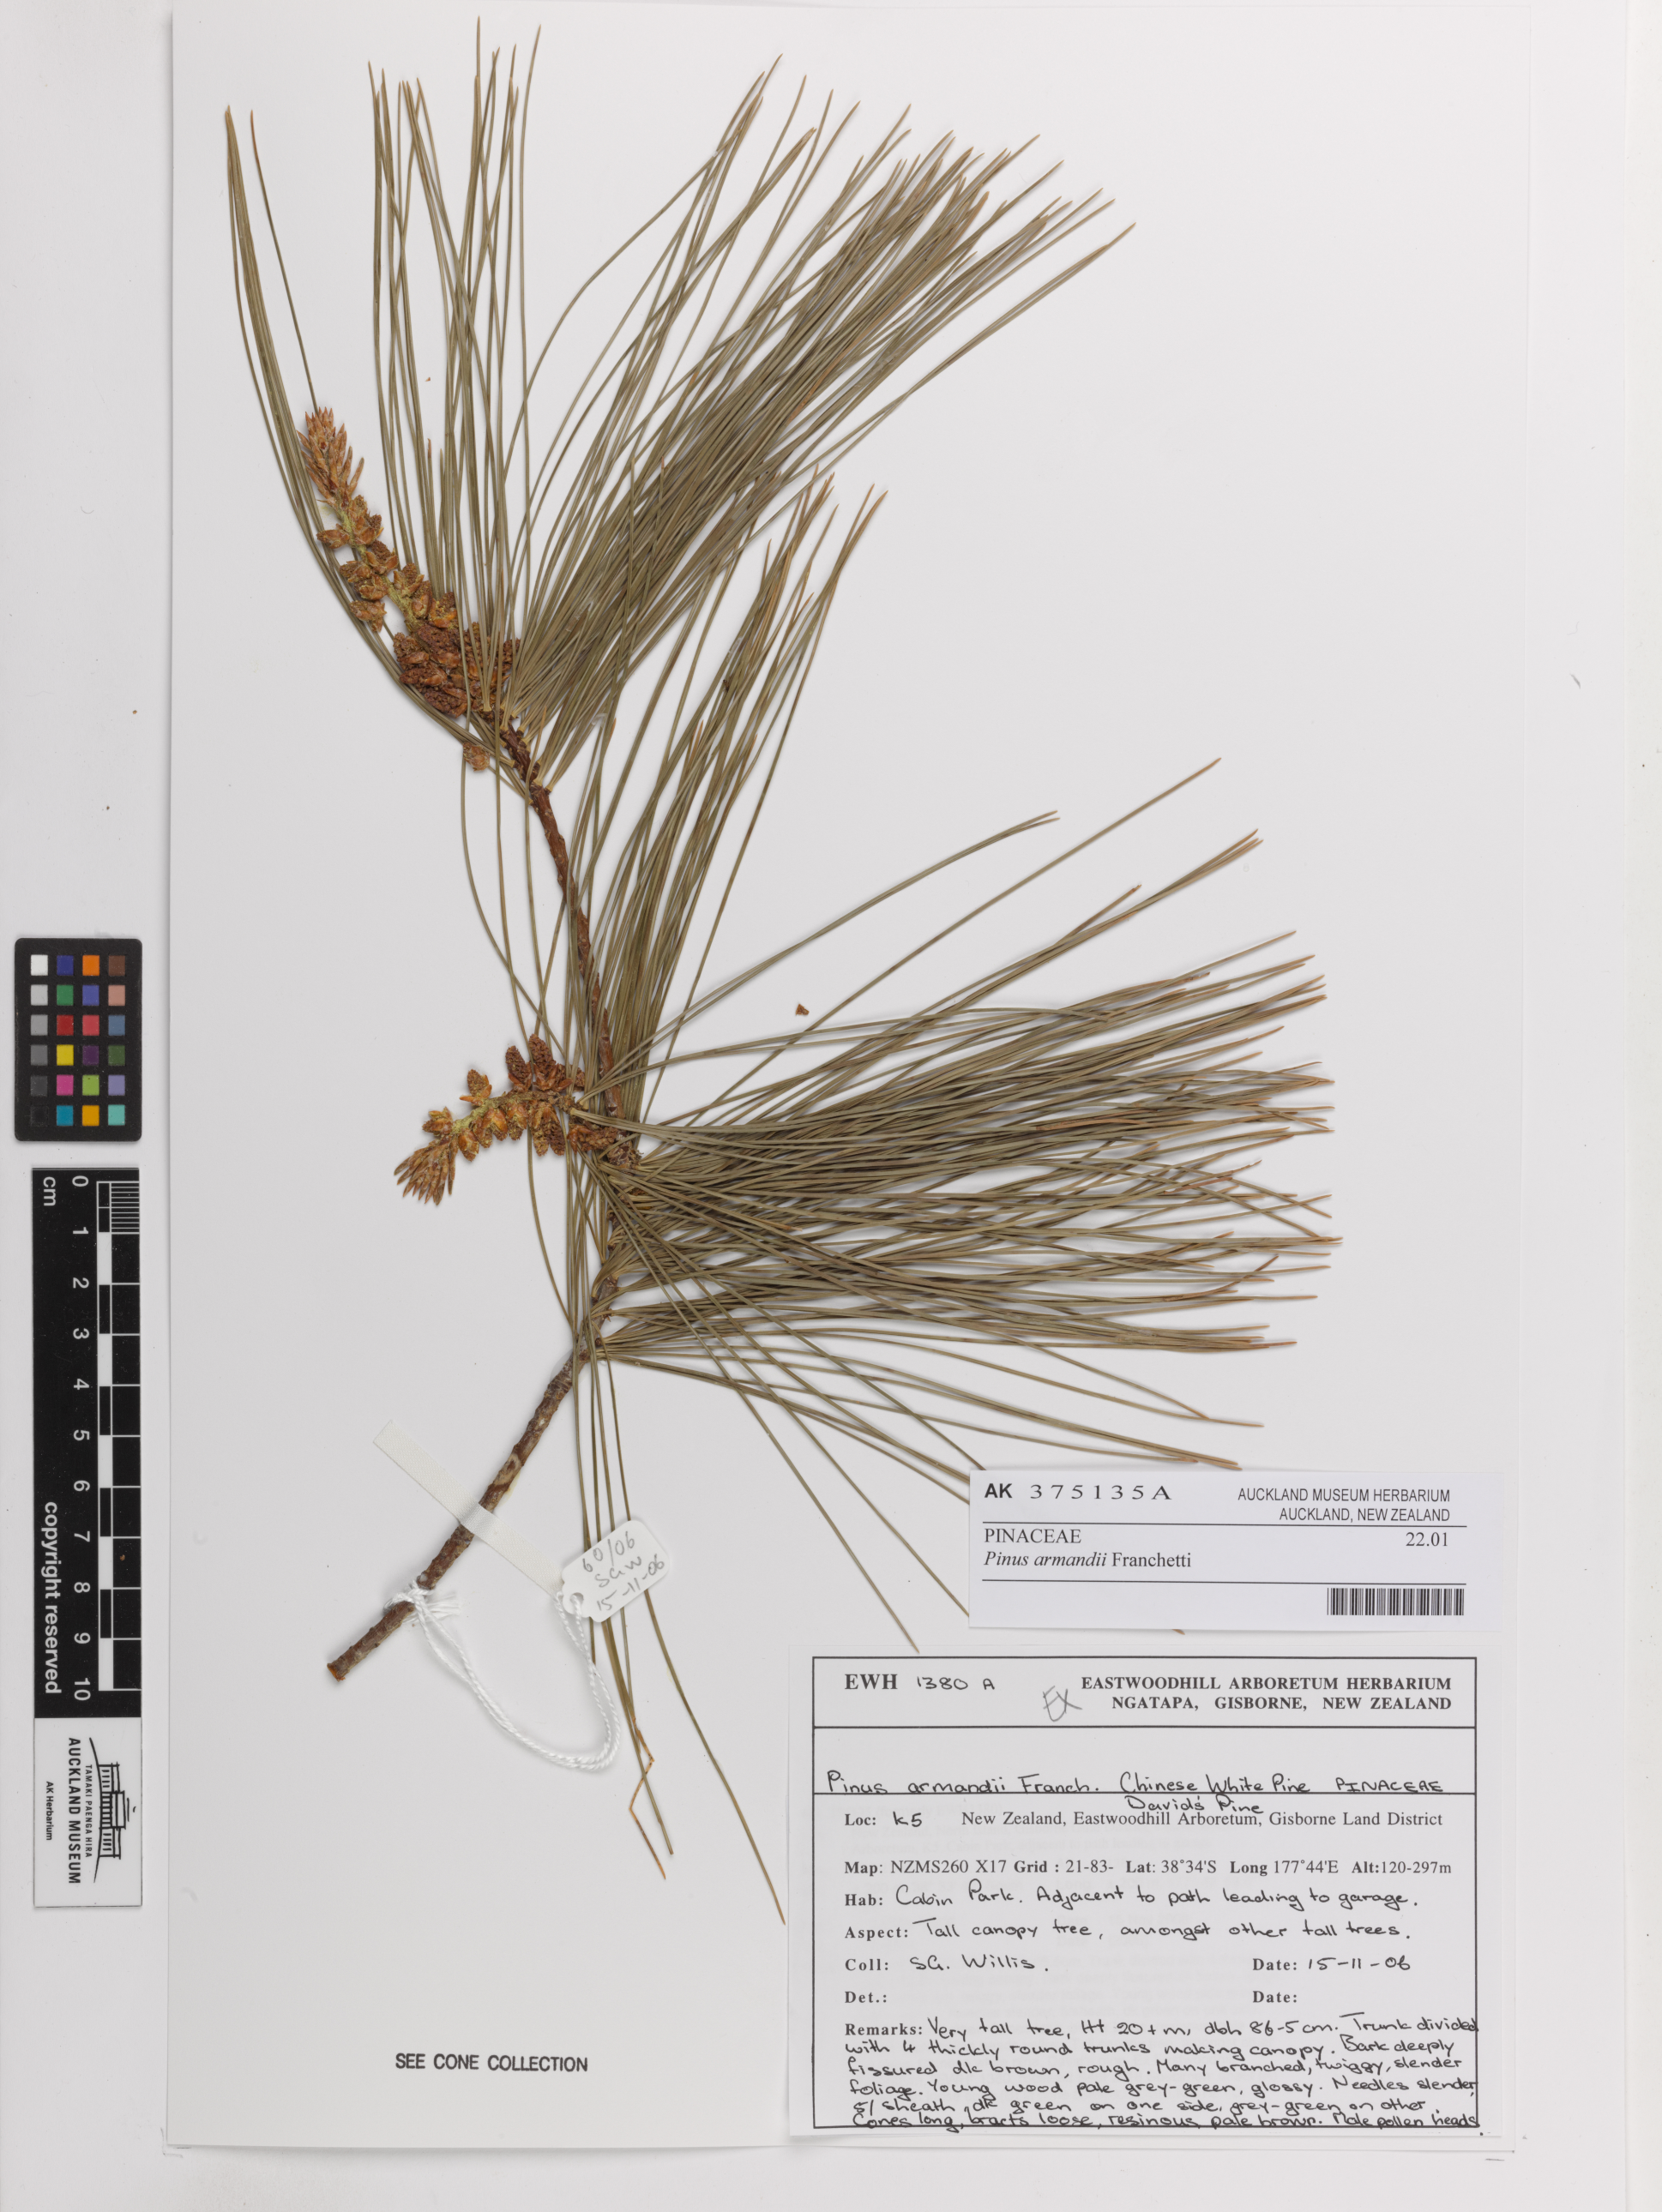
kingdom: Plantae
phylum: Tracheophyta
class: Pinopsida
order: Pinales
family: Pinaceae
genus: Pinus
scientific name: Pinus armandii
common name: Armand's pine
